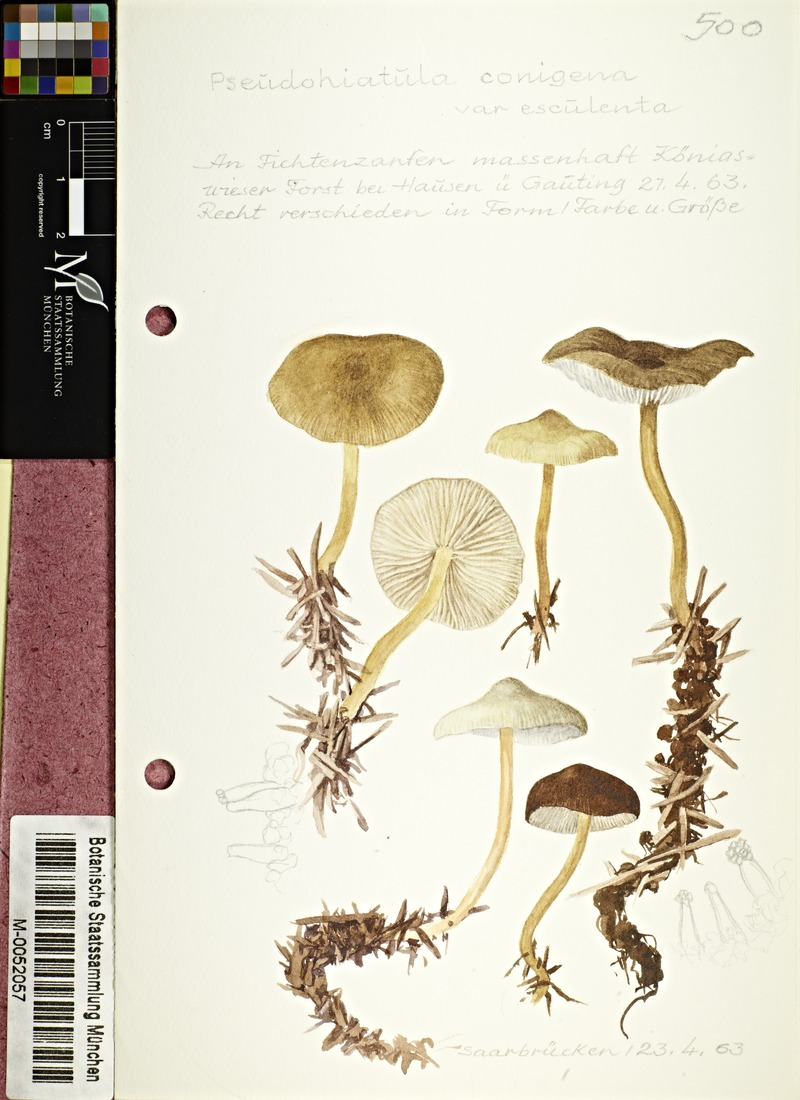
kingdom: Fungi
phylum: Basidiomycota
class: Agaricomycetes
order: Agaricales
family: Physalacriaceae
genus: Strobilurus
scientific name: Strobilurus esculentus
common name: Sprucecone cap
